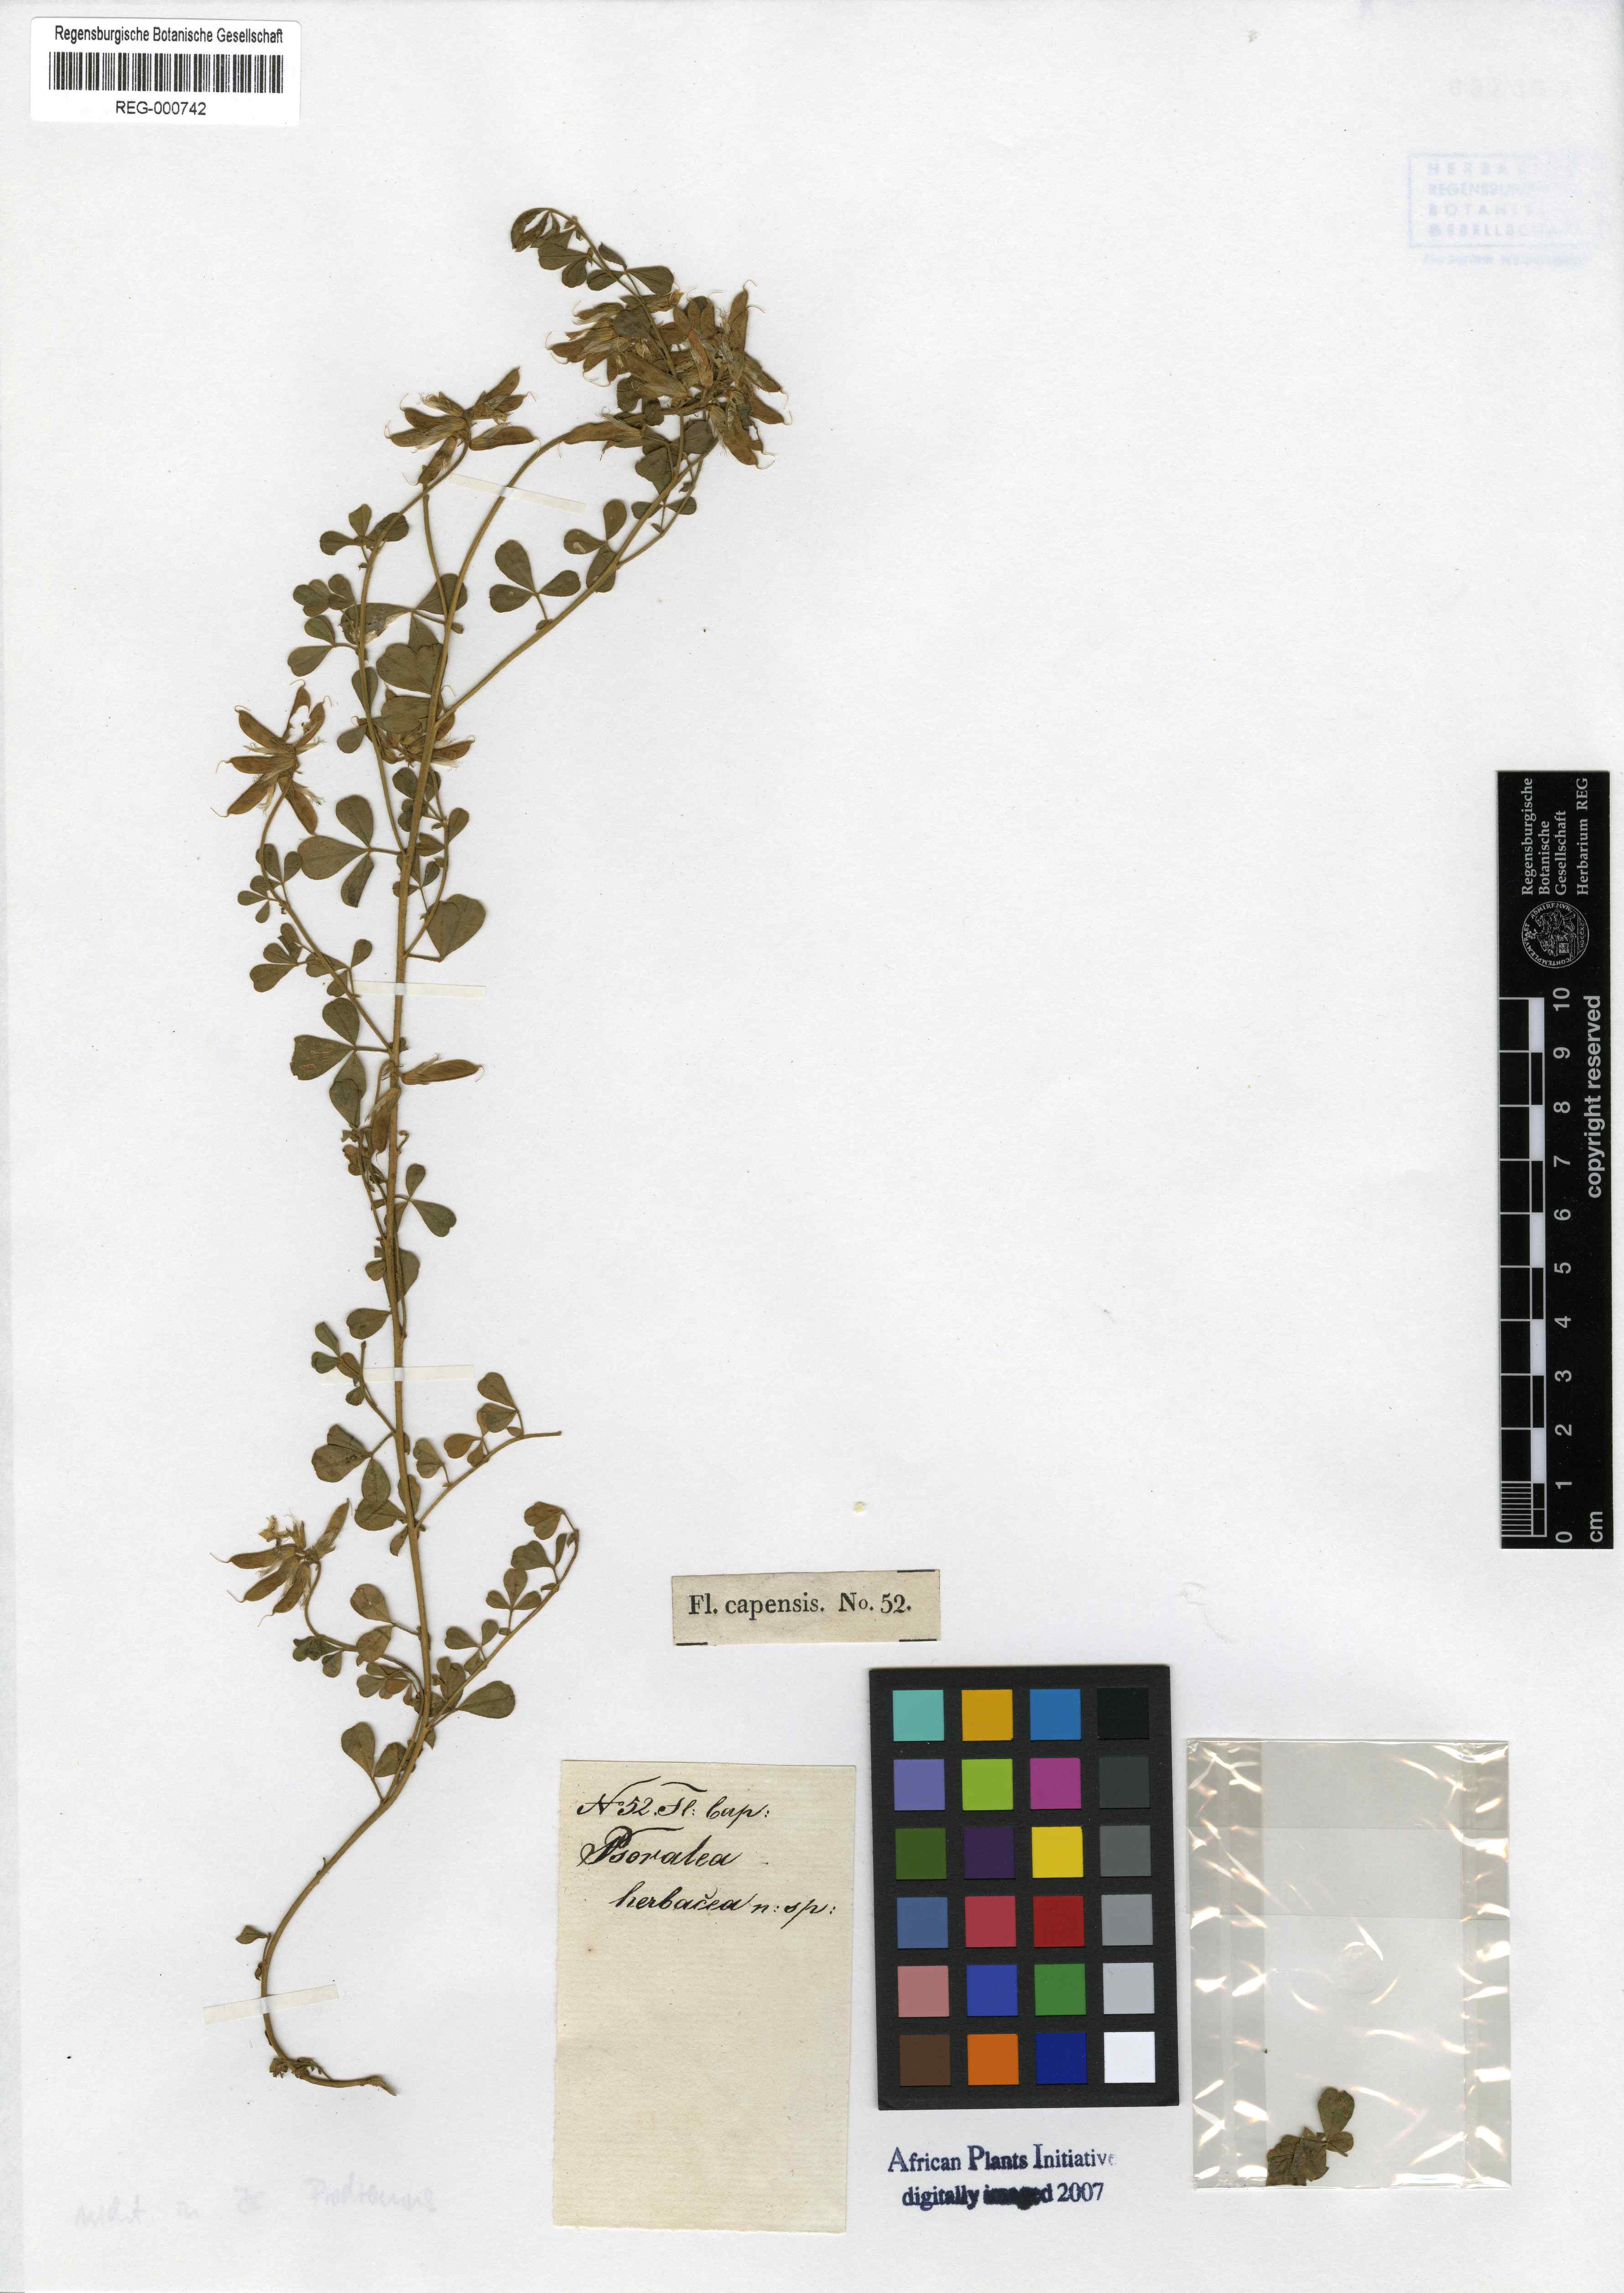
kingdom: Plantae
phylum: Tracheophyta
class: Magnoliopsida
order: Fabales
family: Fabaceae
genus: Lotononis
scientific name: Lotononis umbellata
